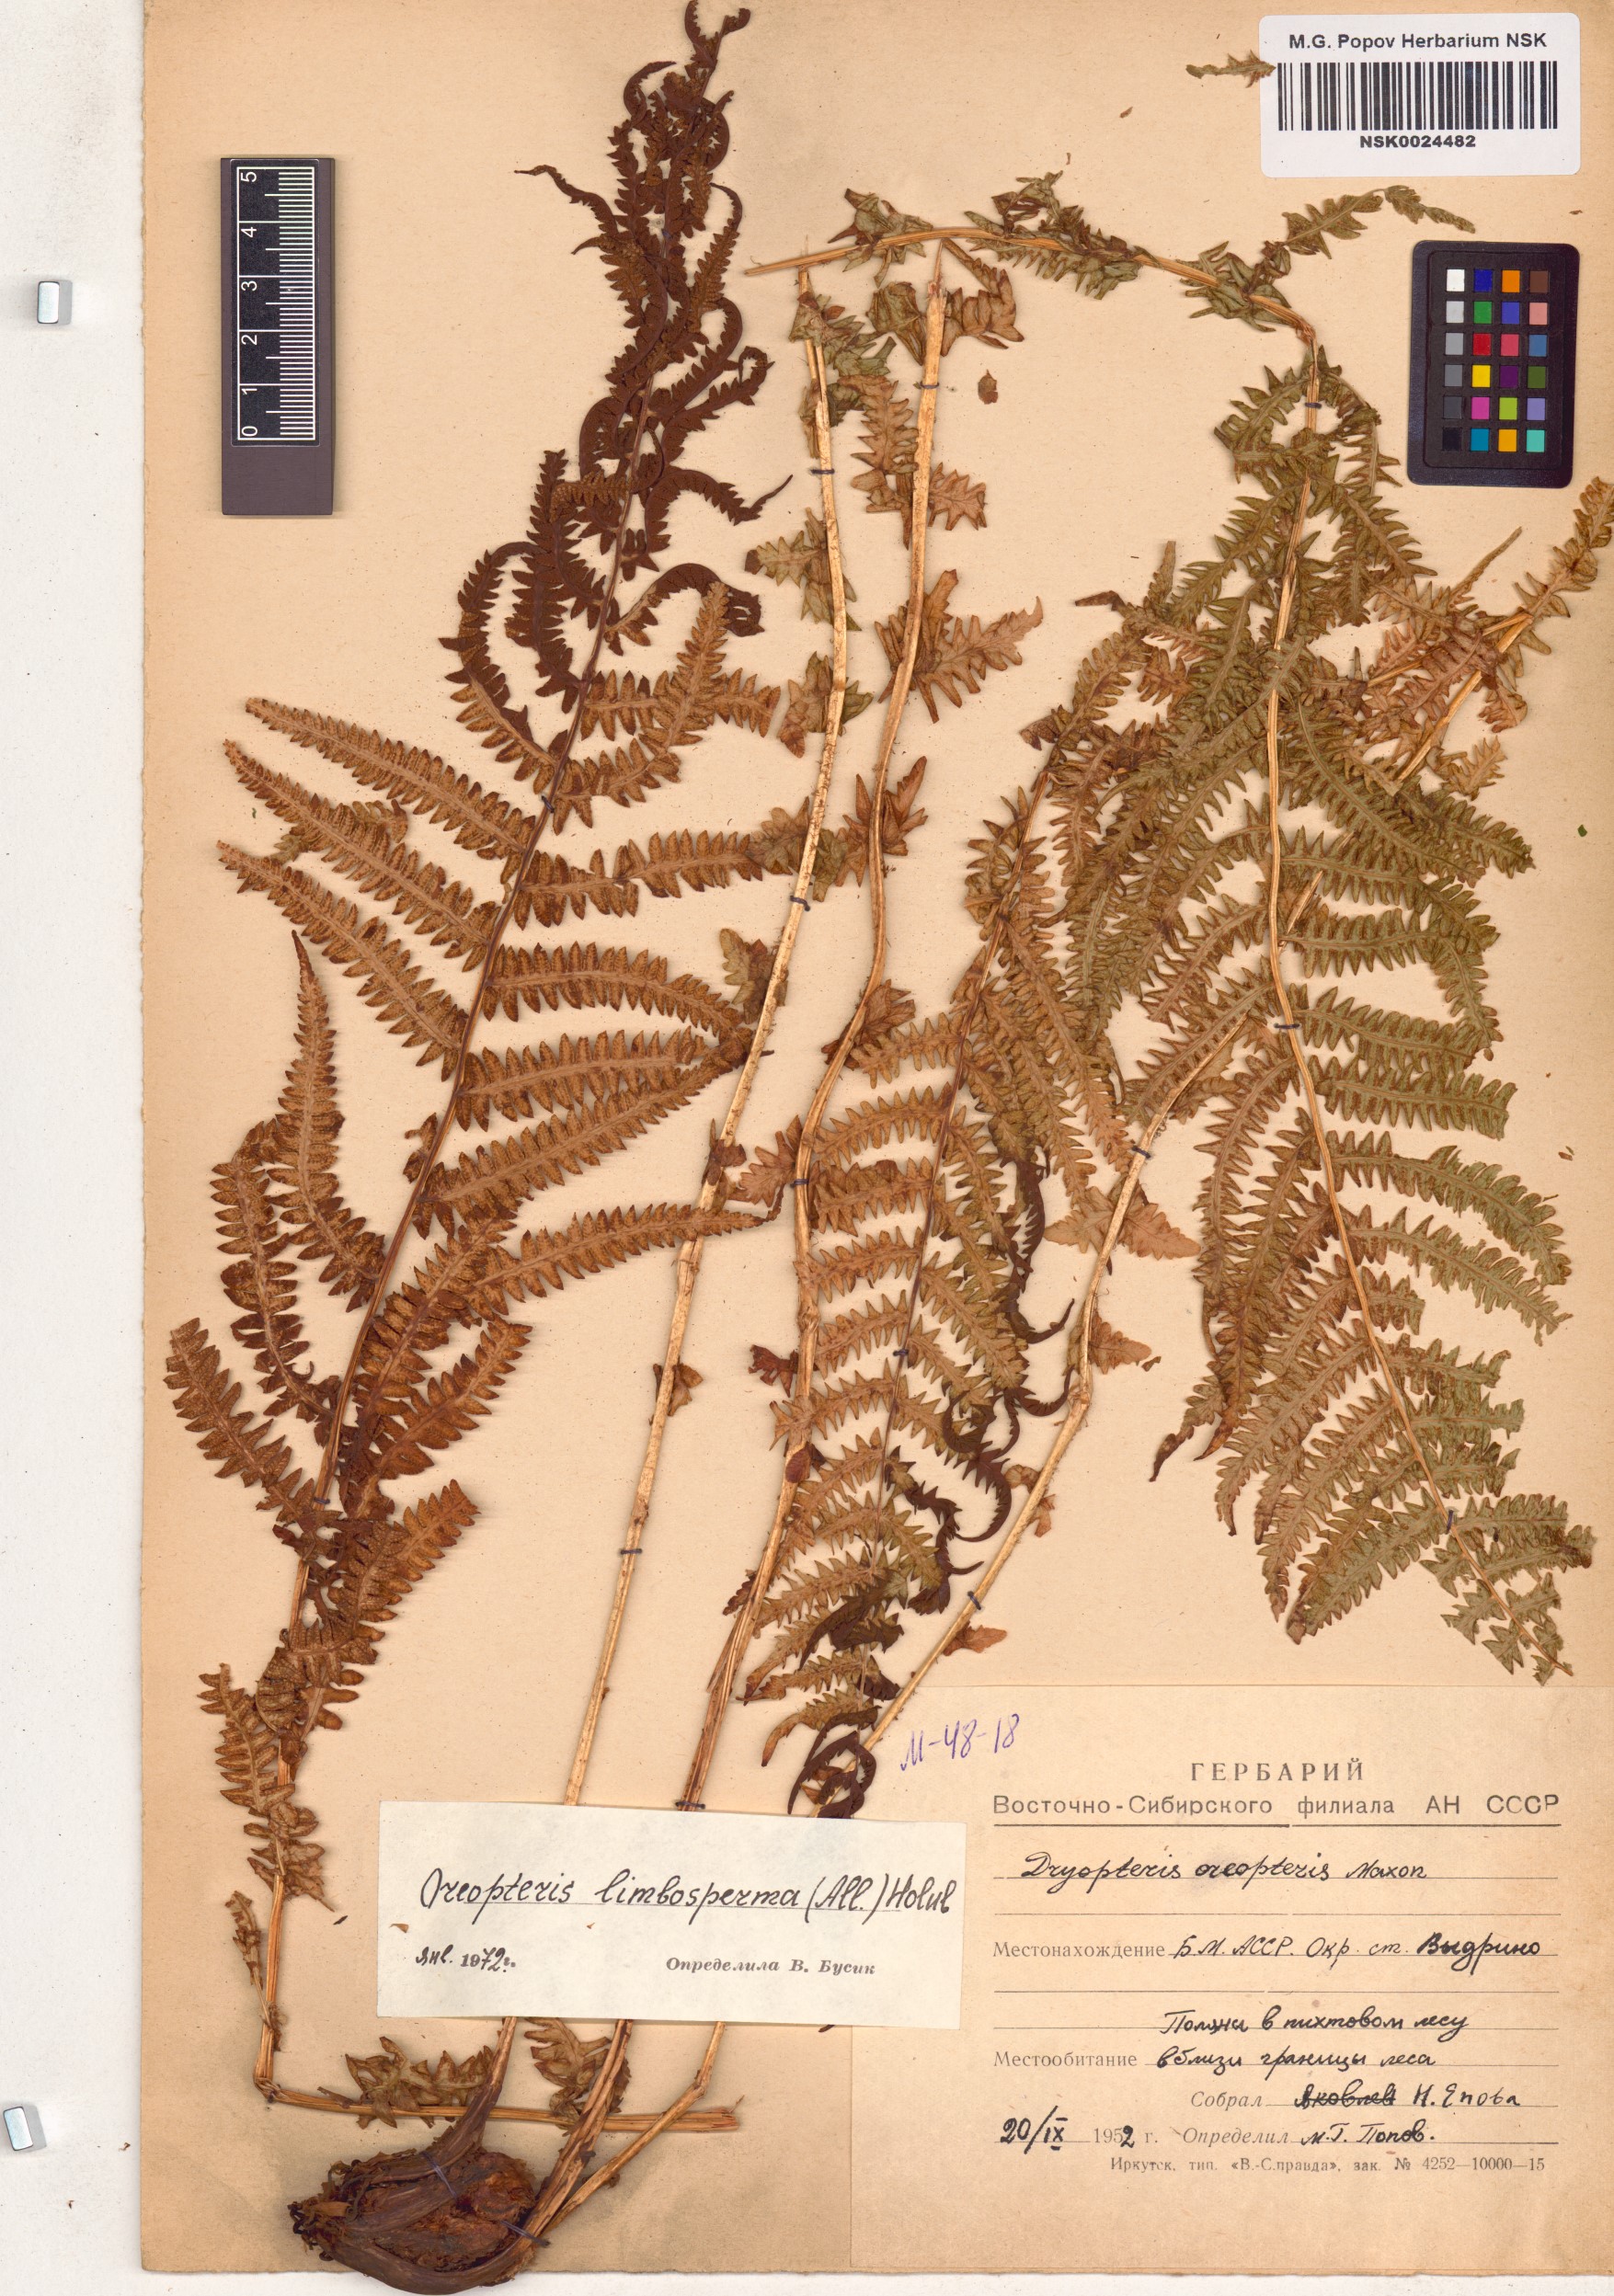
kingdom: Plantae
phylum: Tracheophyta
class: Polypodiopsida
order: Polypodiales
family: Thelypteridaceae
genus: Oreopteris
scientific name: Oreopteris limbosperma
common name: Lemon-scented fern
